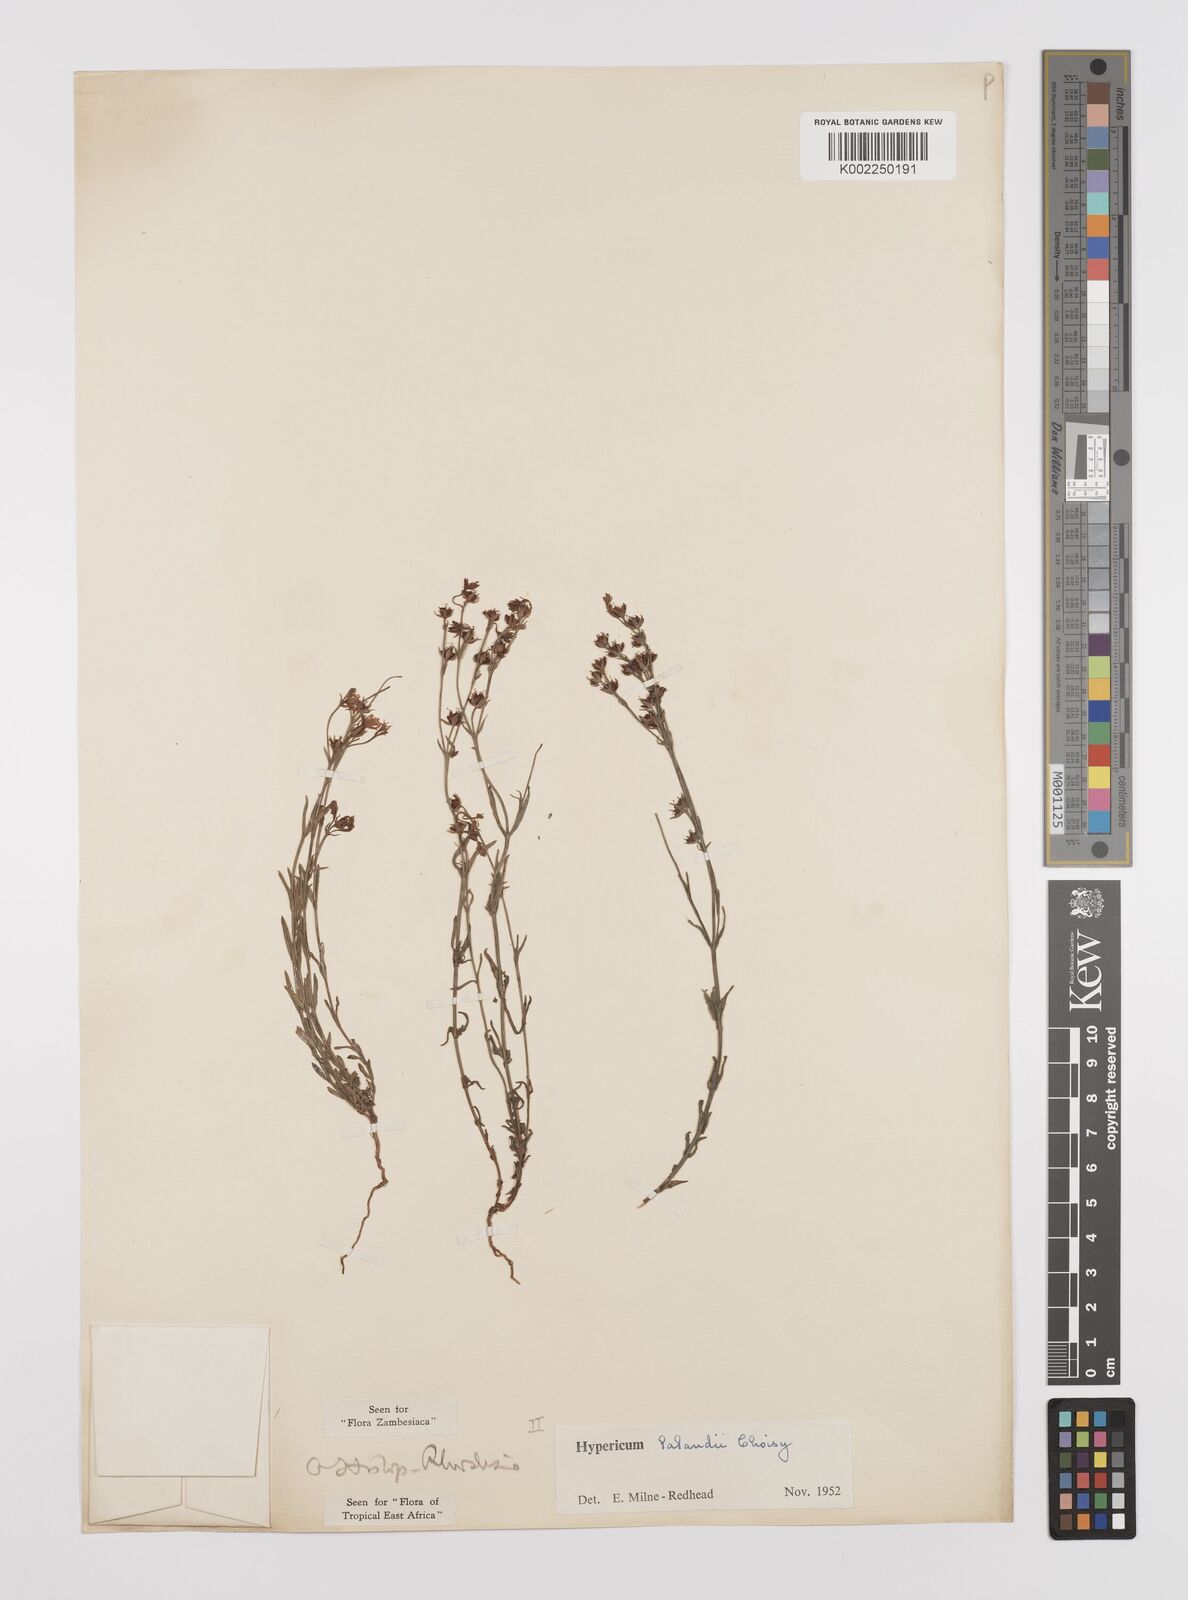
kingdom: Plantae
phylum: Tracheophyta
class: Magnoliopsida
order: Malpighiales
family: Hypericaceae
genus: Hypericum
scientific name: Hypericum lalandii
